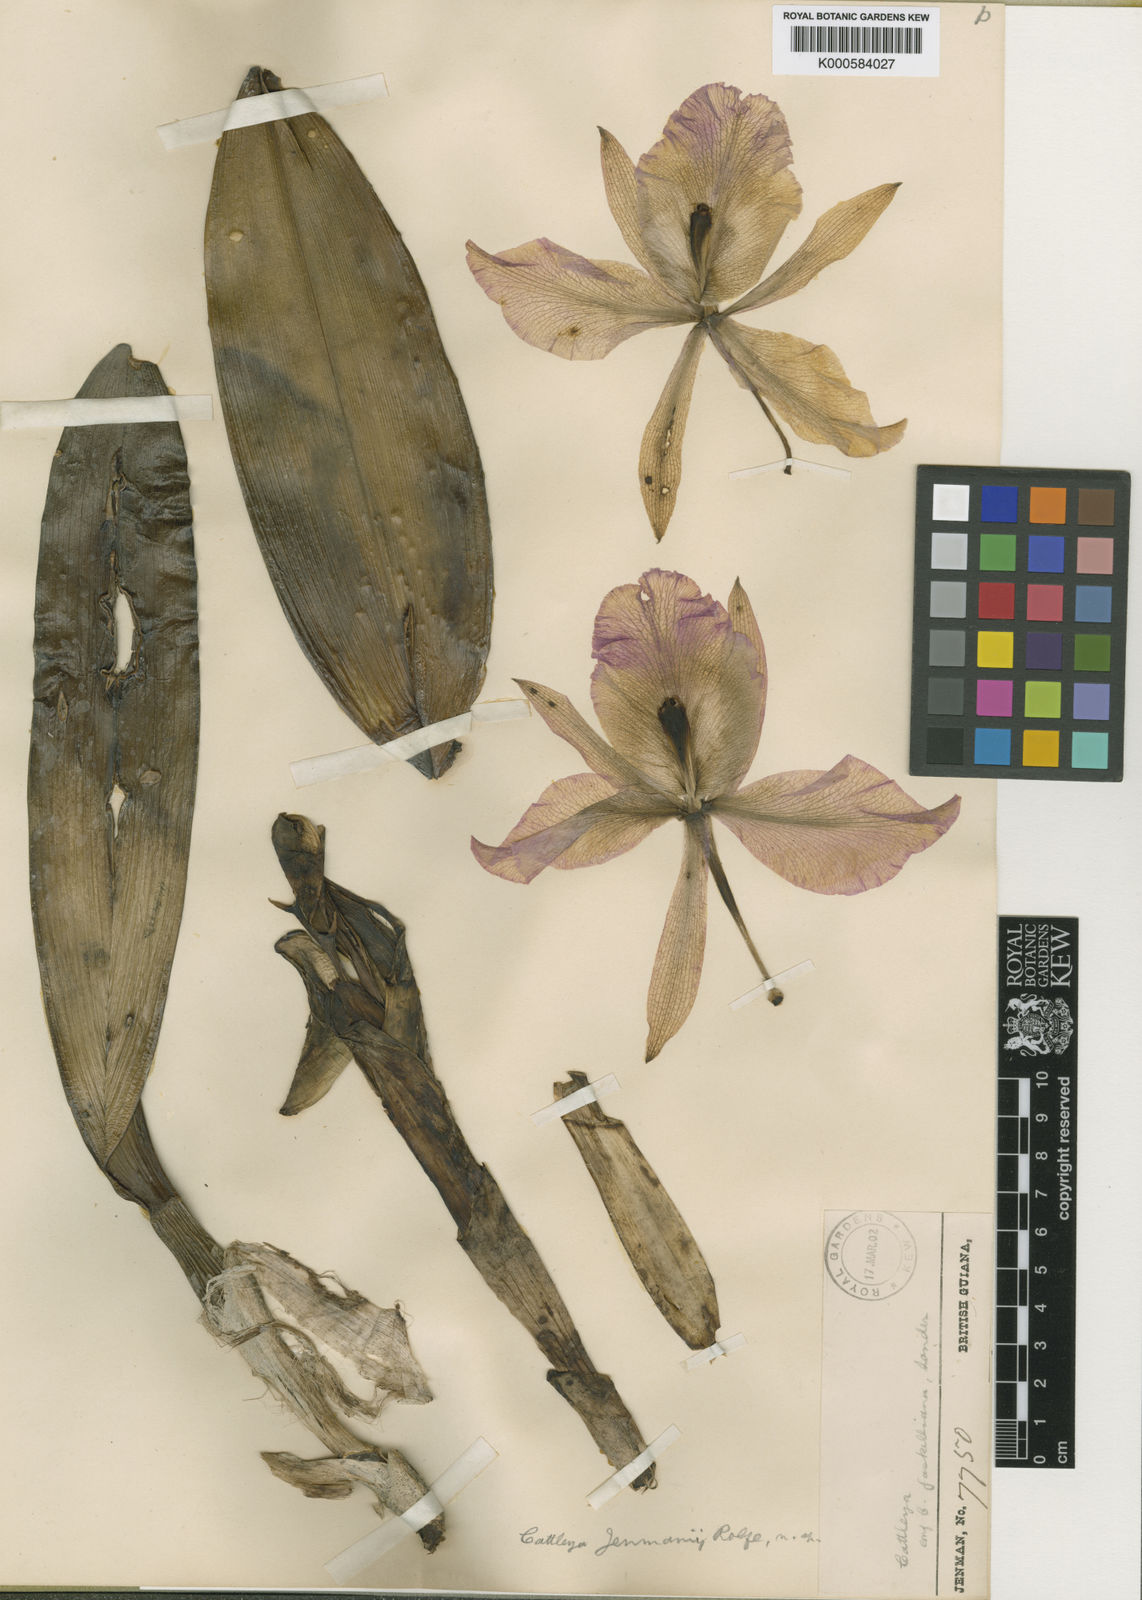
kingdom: Plantae
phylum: Tracheophyta
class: Liliopsida
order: Asparagales
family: Orchidaceae
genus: Cattleya
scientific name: Cattleya jenmanii
